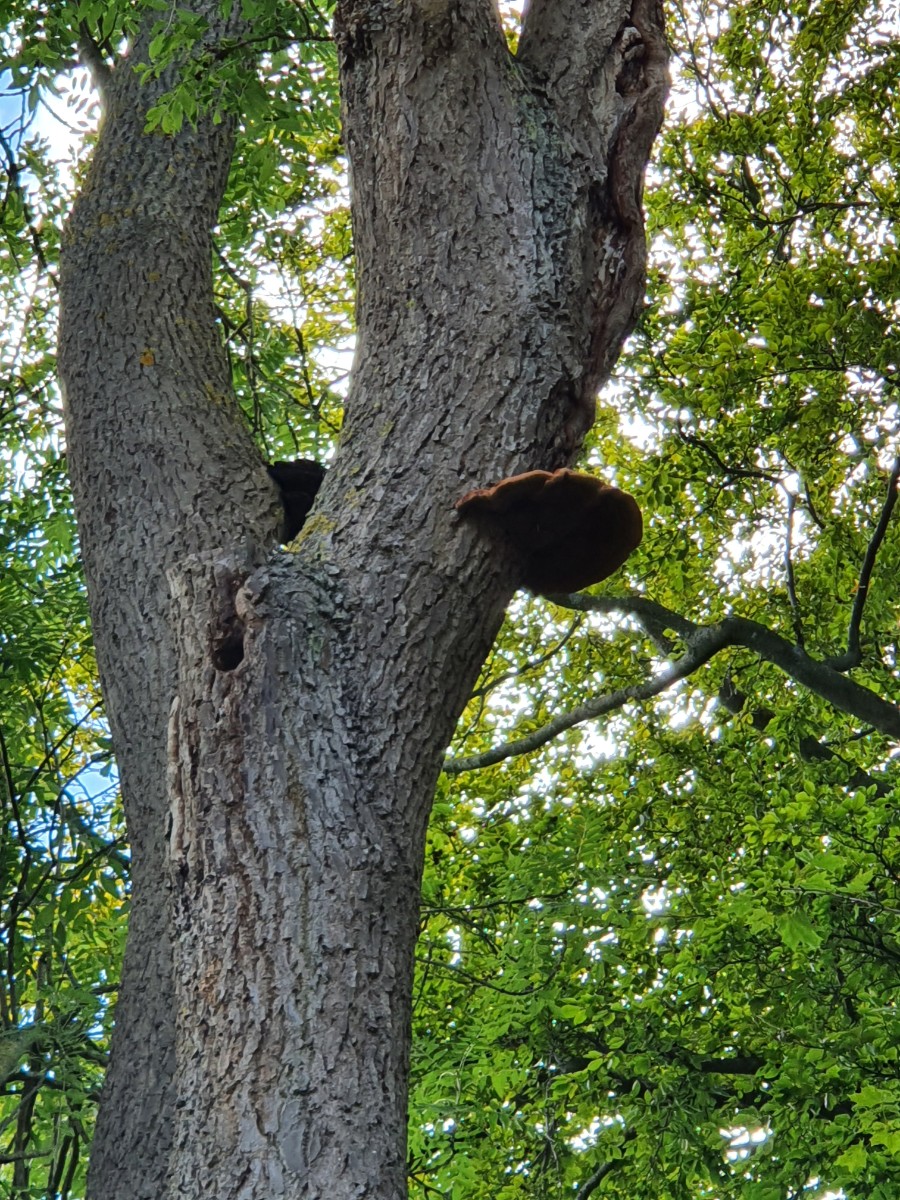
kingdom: Fungi
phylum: Basidiomycota
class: Agaricomycetes
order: Hymenochaetales
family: Hymenochaetaceae
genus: Inonotus
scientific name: Inonotus hispidus
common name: børstehåret spejlporesvamp
